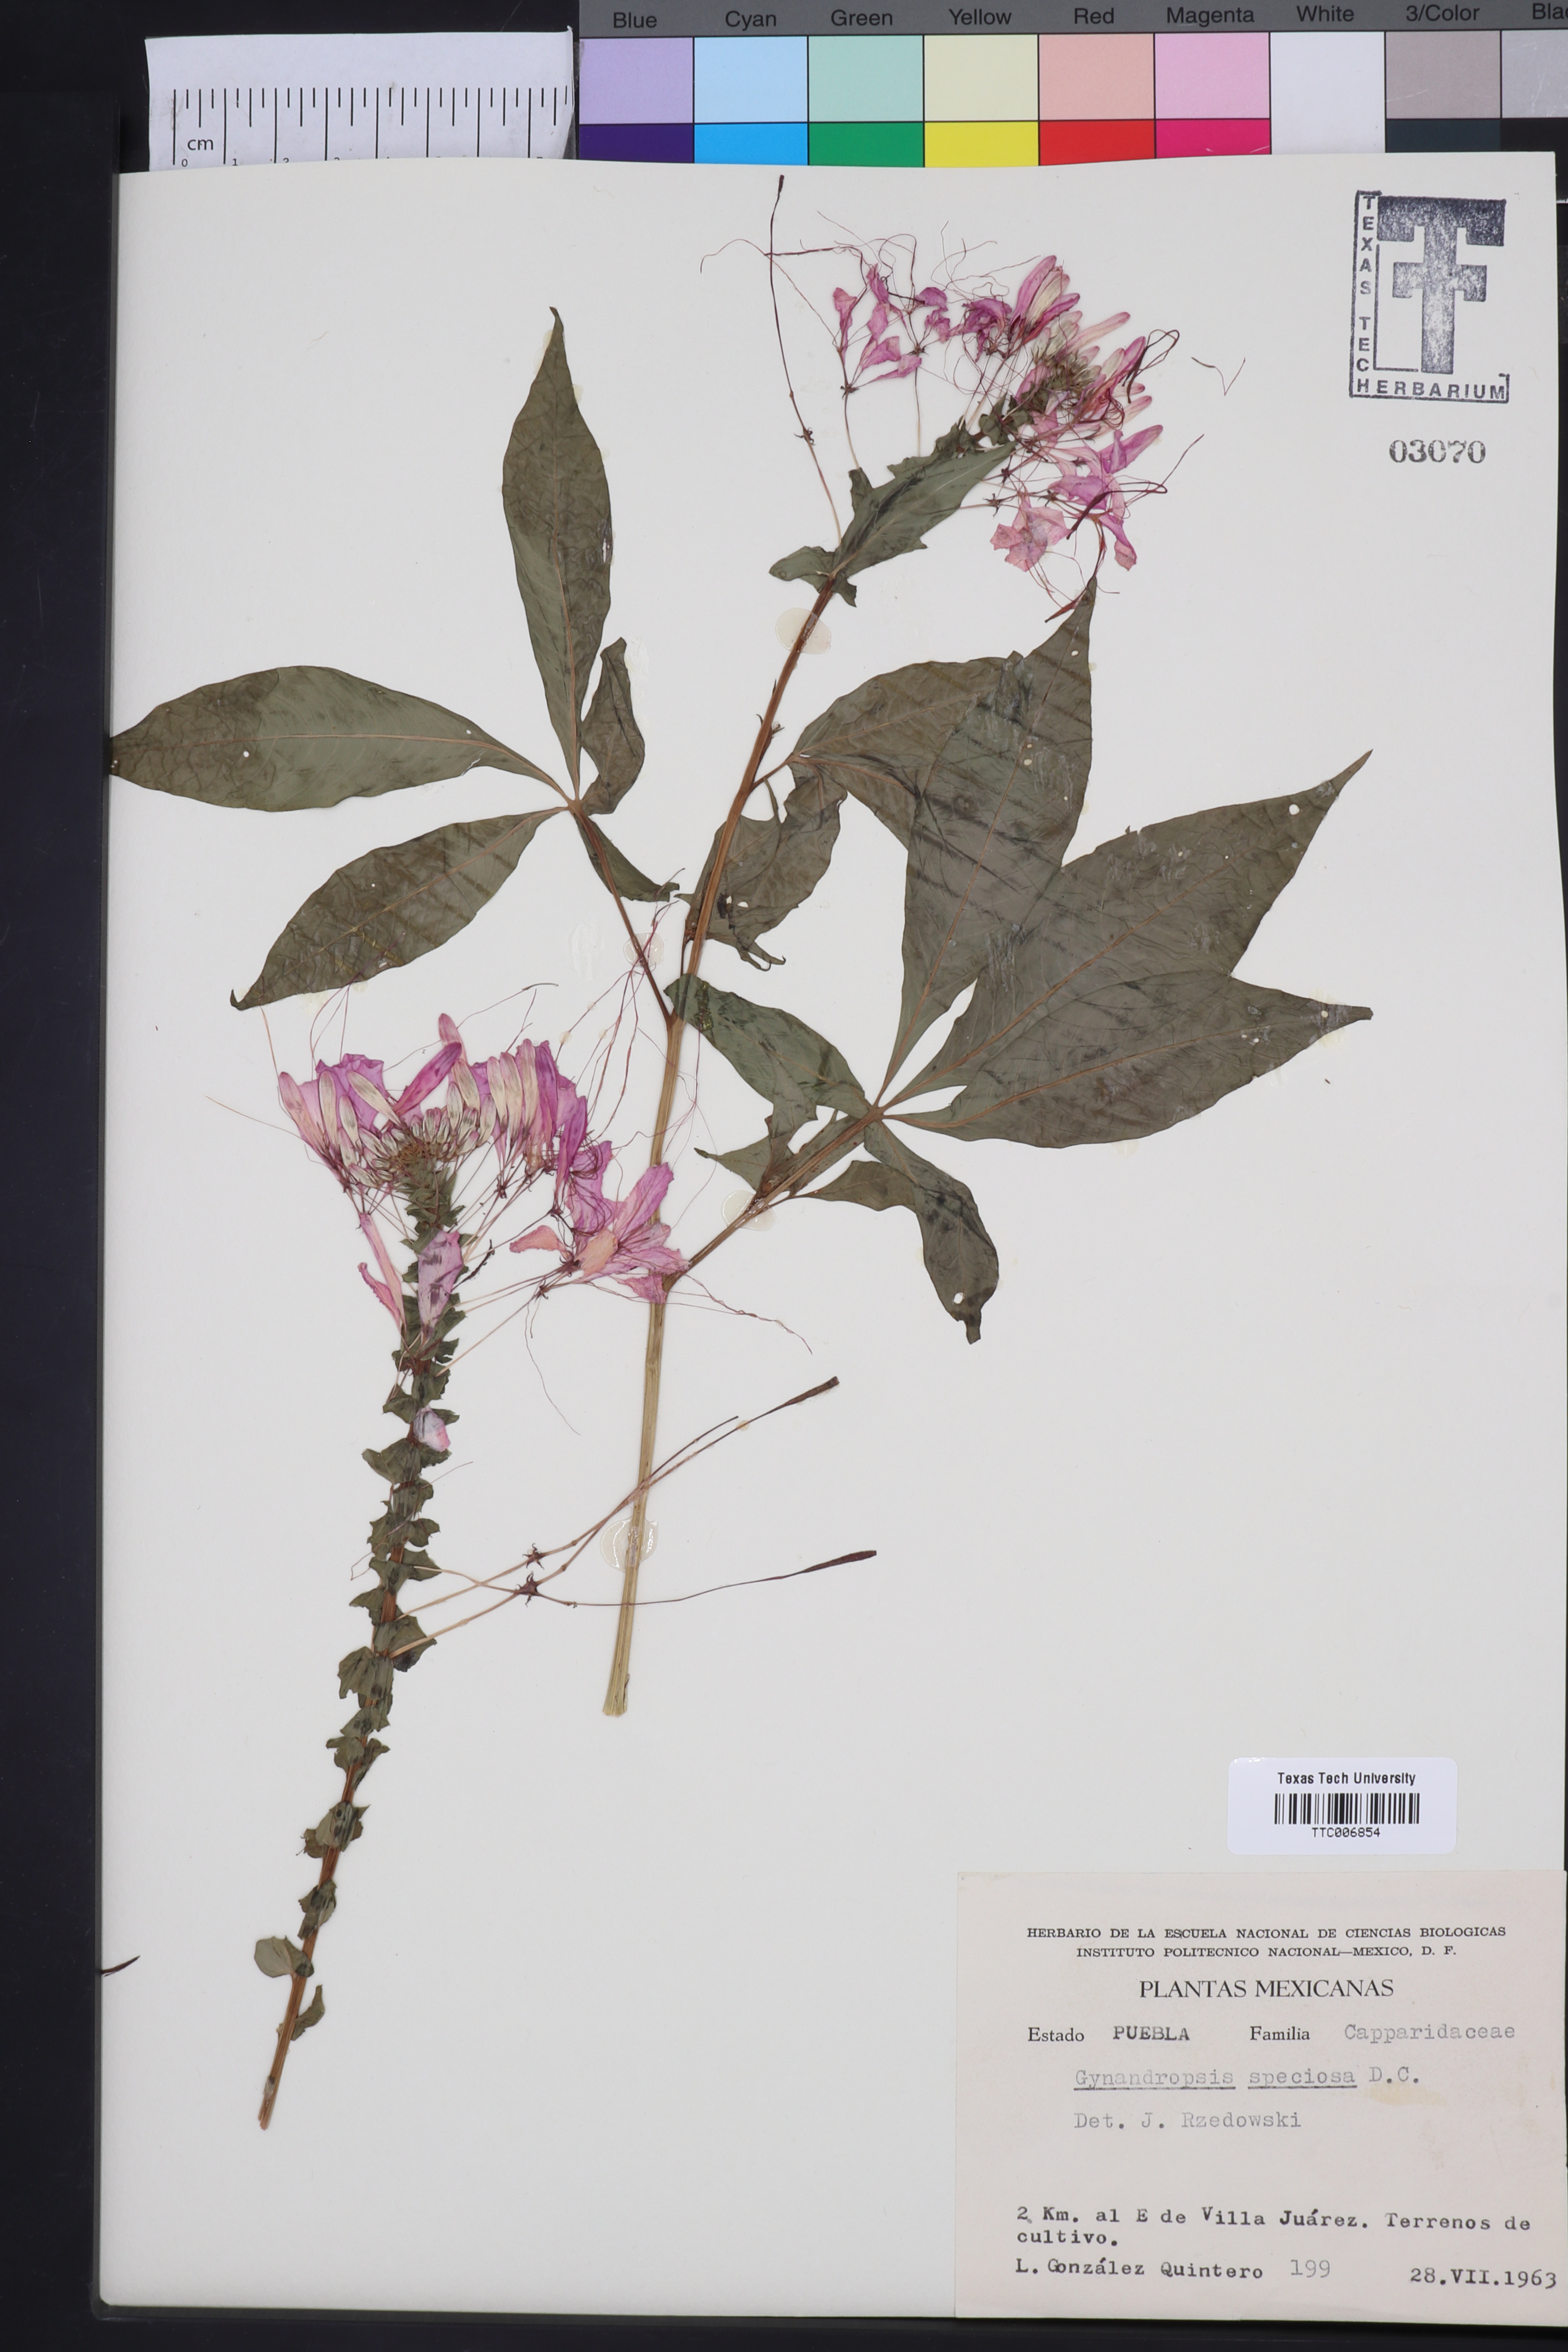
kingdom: Plantae
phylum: Tracheophyta
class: Magnoliopsida
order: Brassicales
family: Cleomaceae
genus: Cleoserrata
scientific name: Cleoserrata speciosa
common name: Volantines preciosos
